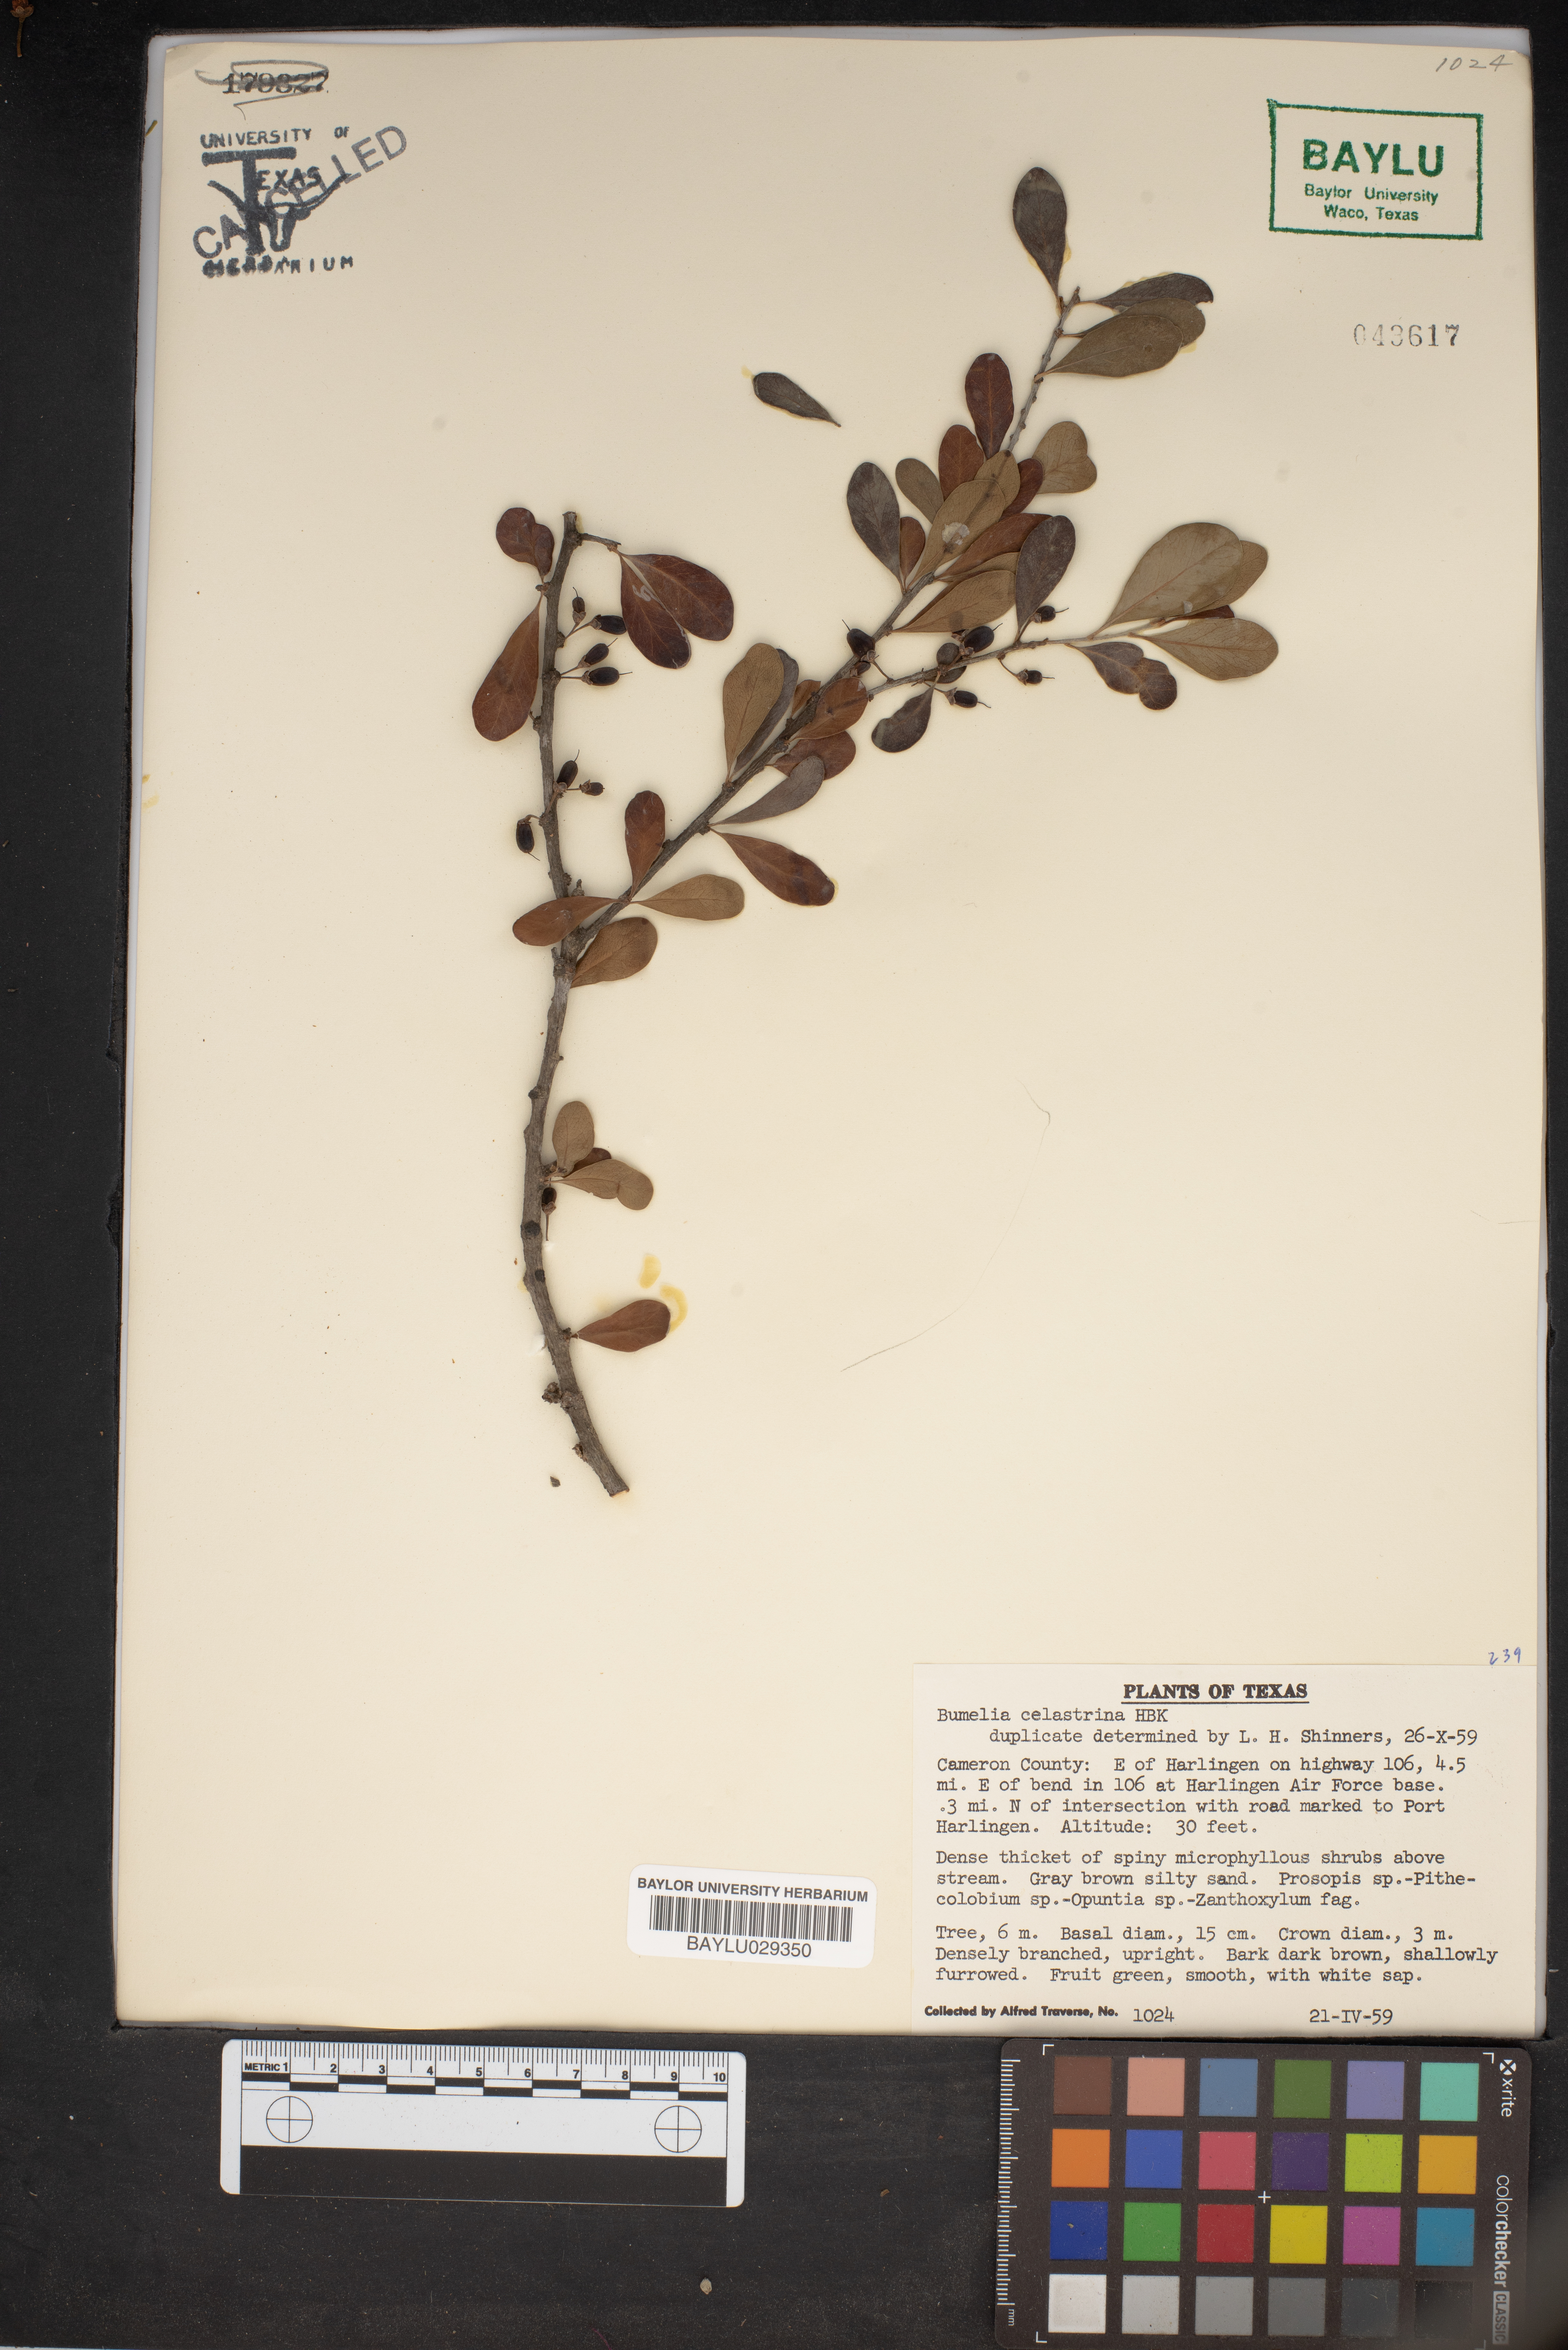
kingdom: Plantae
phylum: Tracheophyta
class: Magnoliopsida
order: Ericales
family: Sapotaceae
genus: Sideroxylon
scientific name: Sideroxylon celastrinum
